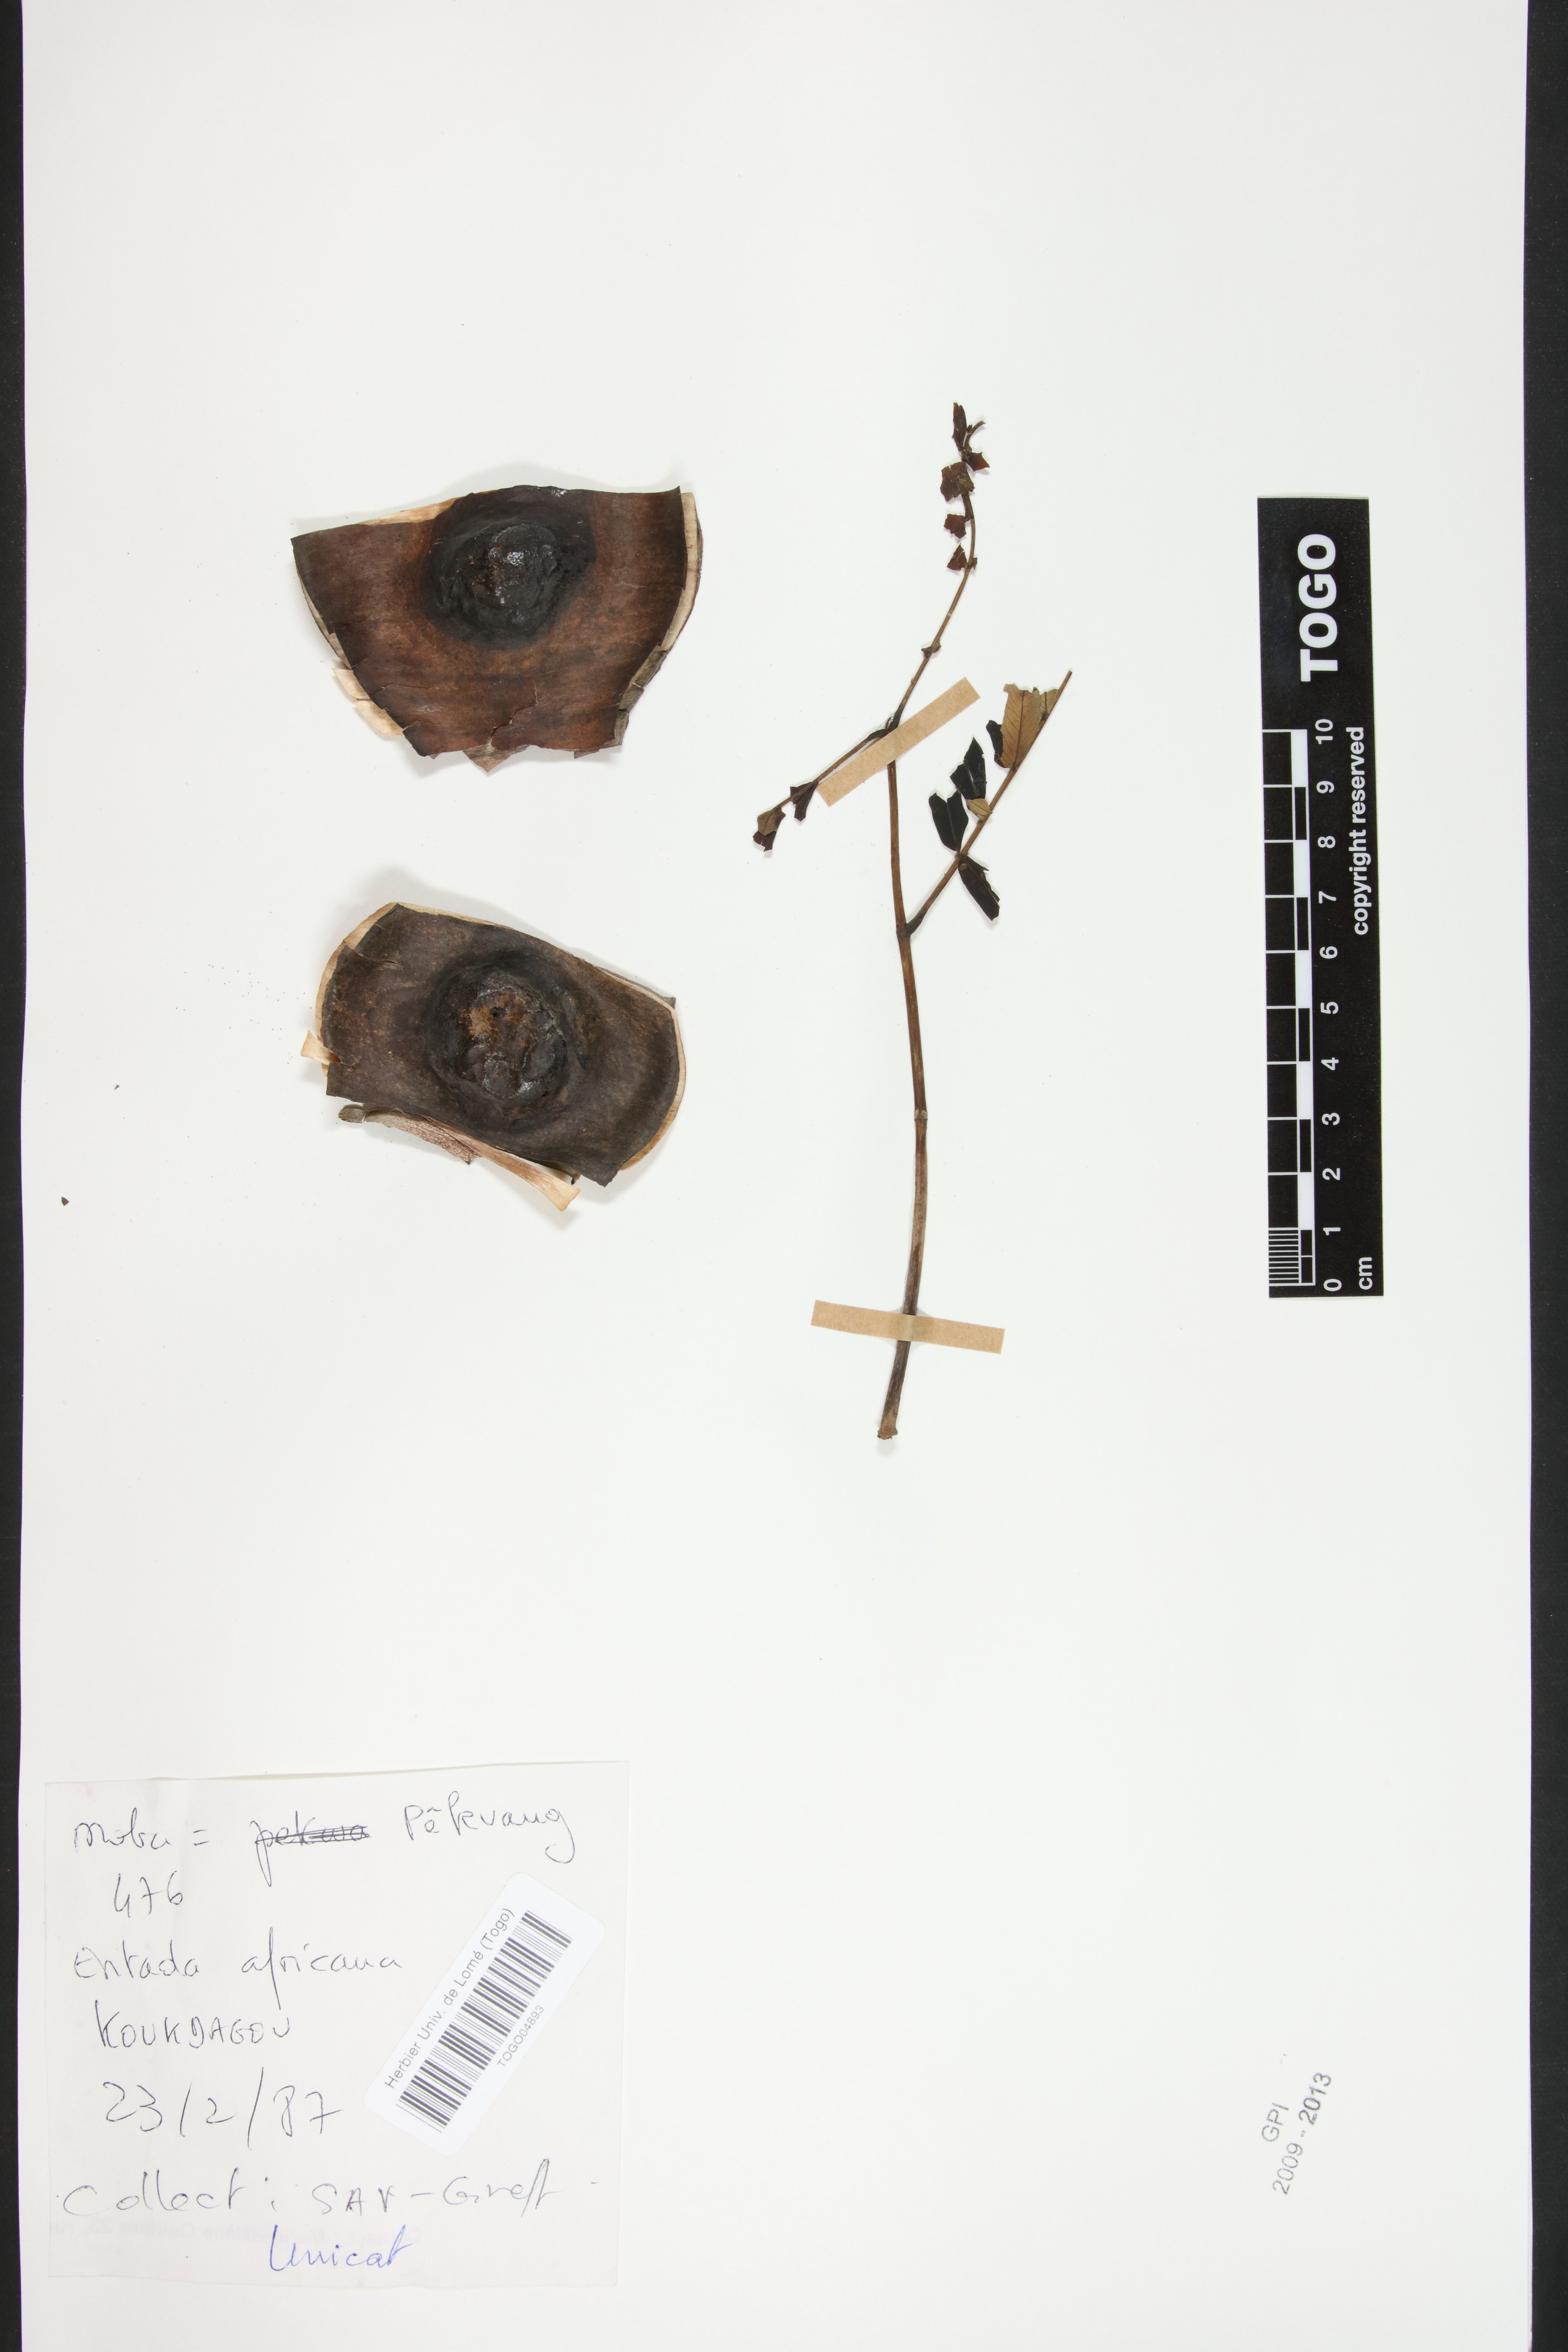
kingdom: Plantae
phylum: Tracheophyta
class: Magnoliopsida
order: Fabales
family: Fabaceae
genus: Entada
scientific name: Entada africana
